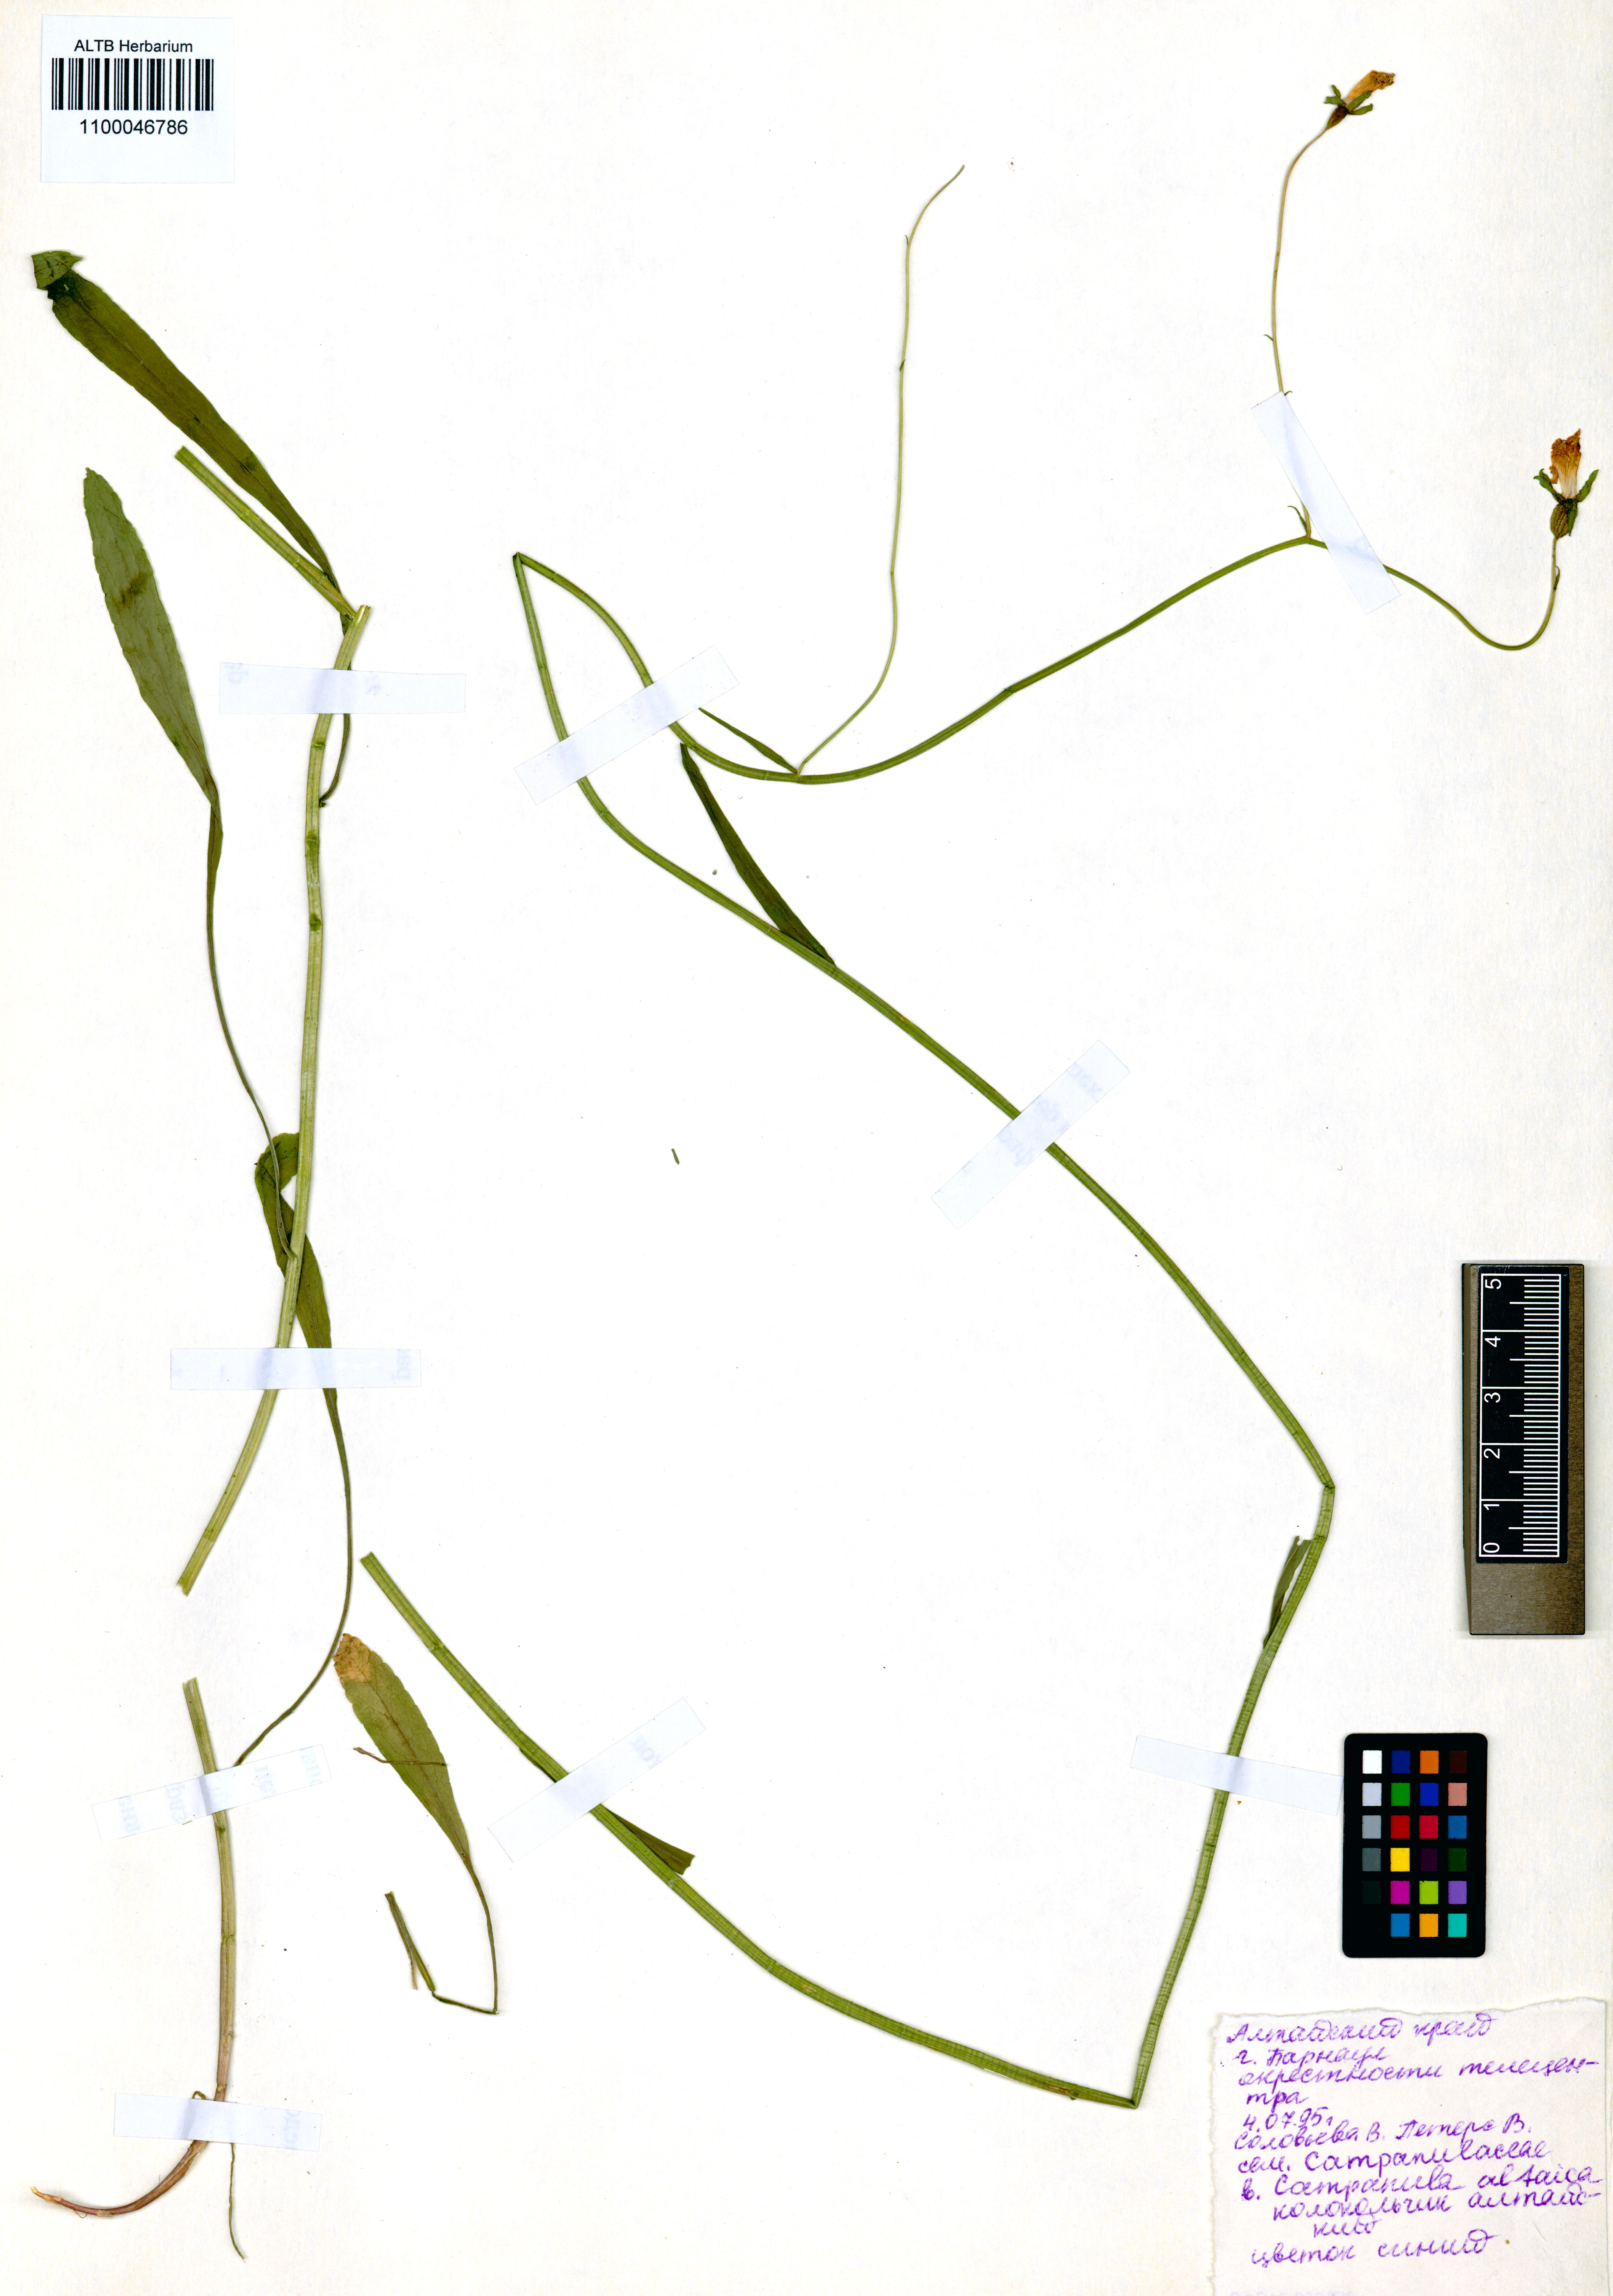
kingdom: Plantae
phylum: Tracheophyta
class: Magnoliopsida
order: Asterales
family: Campanulaceae
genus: Campanula
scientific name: Campanula stevenii
